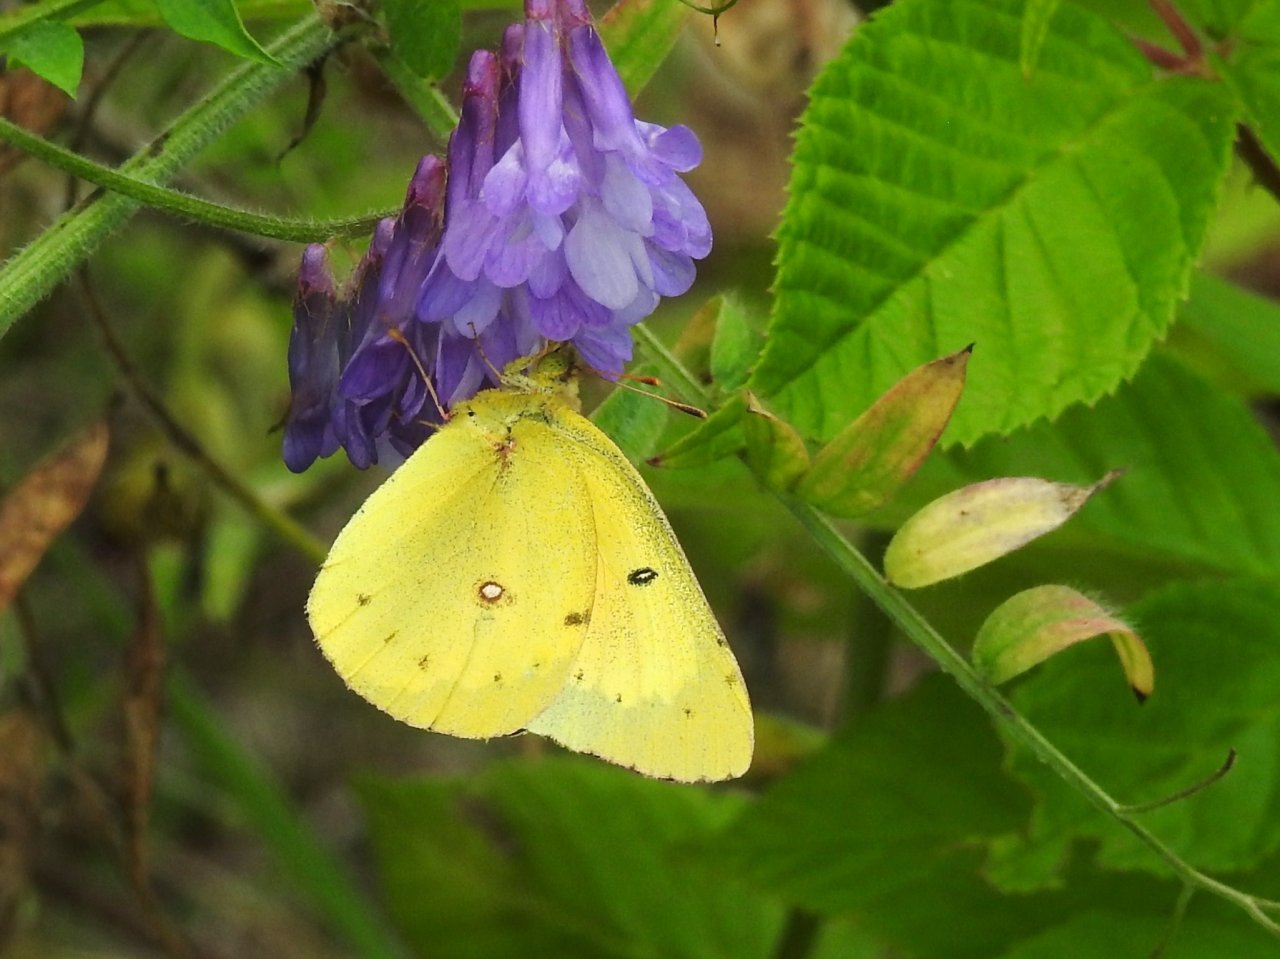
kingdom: Animalia
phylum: Arthropoda
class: Insecta
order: Lepidoptera
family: Pieridae
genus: Colias
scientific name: Colias eurytheme
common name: Orange Sulphur
